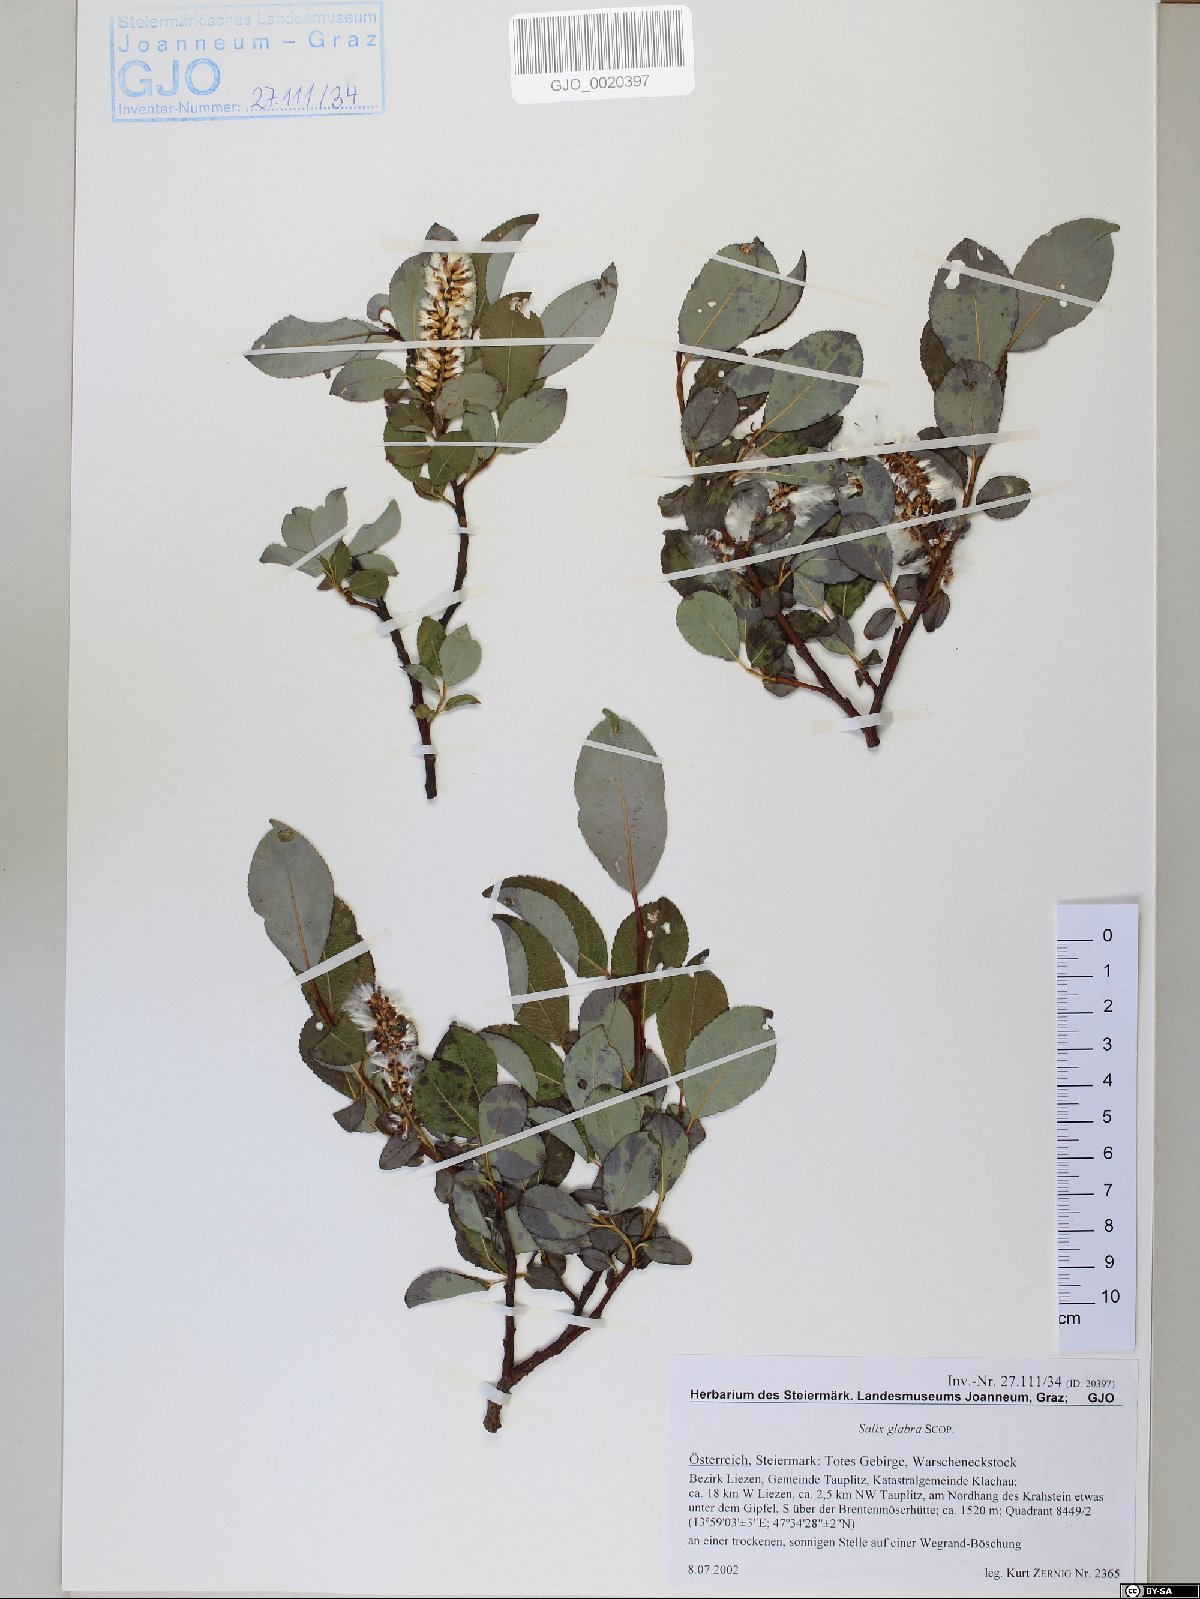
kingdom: Plantae
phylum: Tracheophyta
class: Magnoliopsida
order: Malpighiales
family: Salicaceae
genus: Salix
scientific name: Salix glabra
